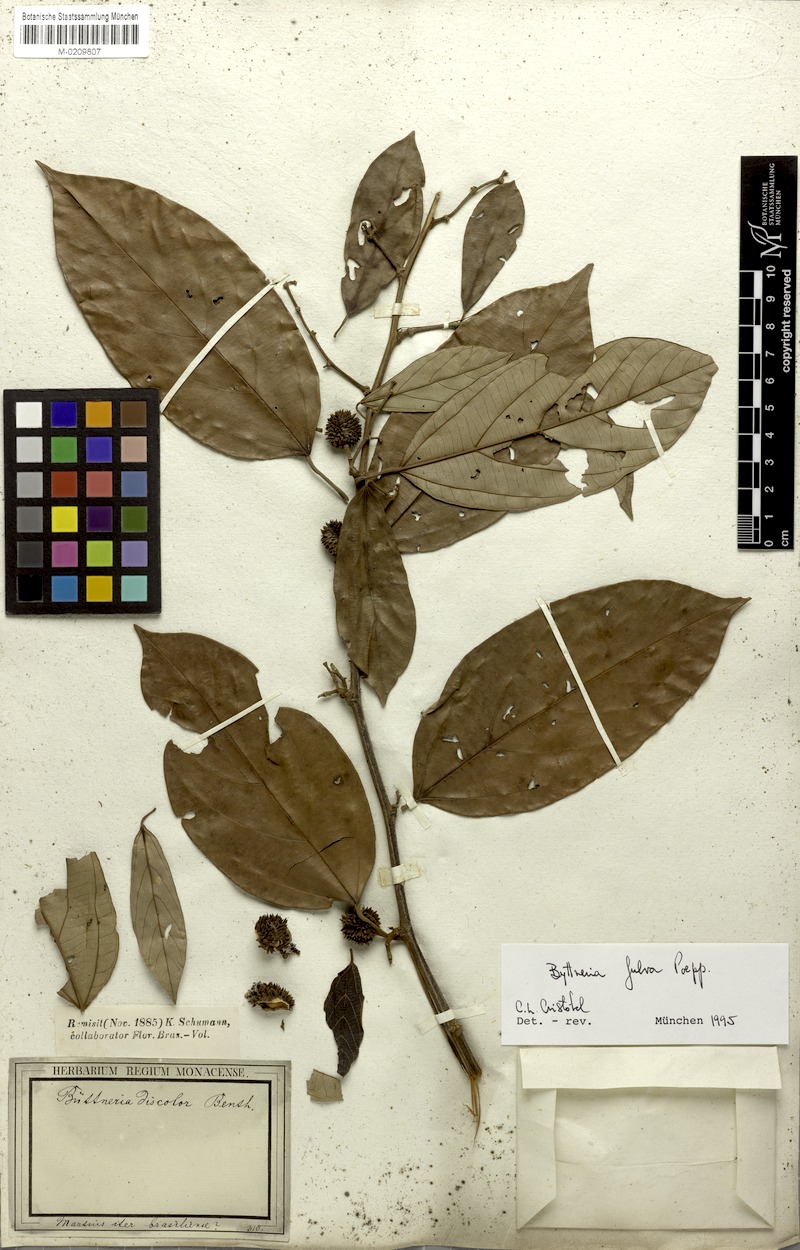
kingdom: Plantae
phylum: Tracheophyta
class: Magnoliopsida
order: Malvales
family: Malvaceae
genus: Byttneria
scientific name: Byttneria fulva
